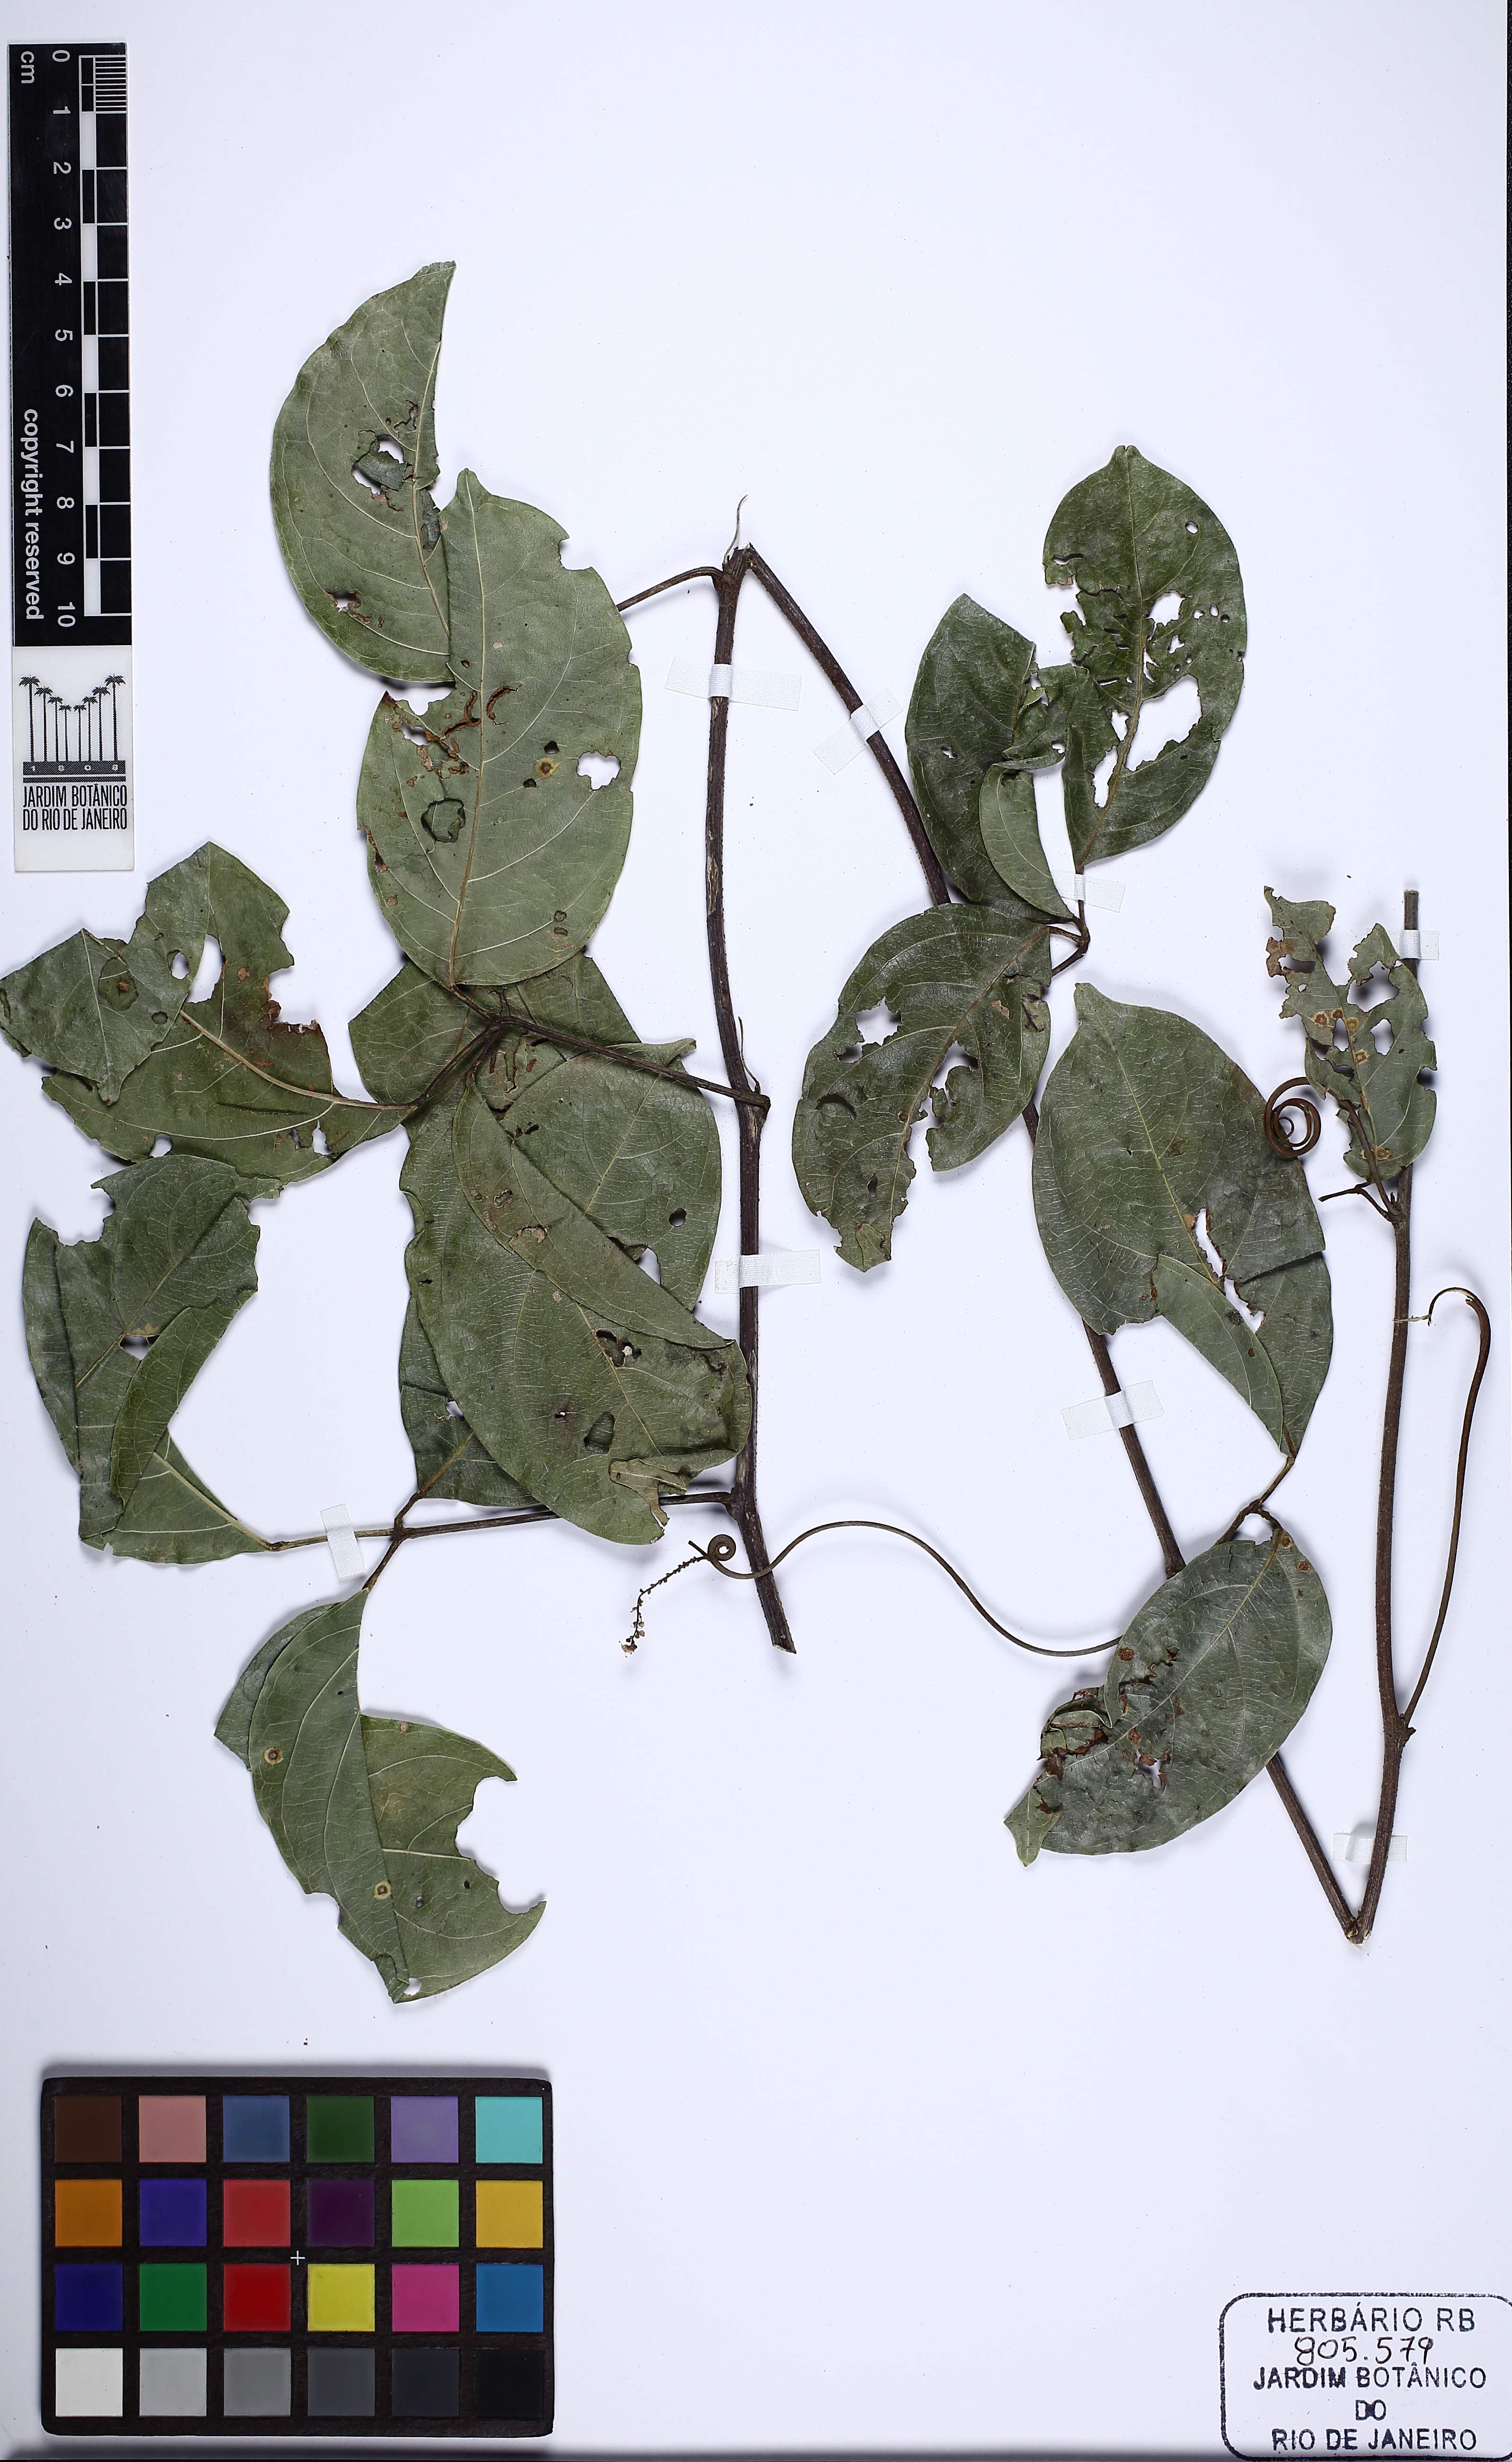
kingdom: Plantae
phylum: Tracheophyta
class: Magnoliopsida
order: Sapindales
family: Sapindaceae
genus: Thinouia
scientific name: Thinouia trifoliolata
